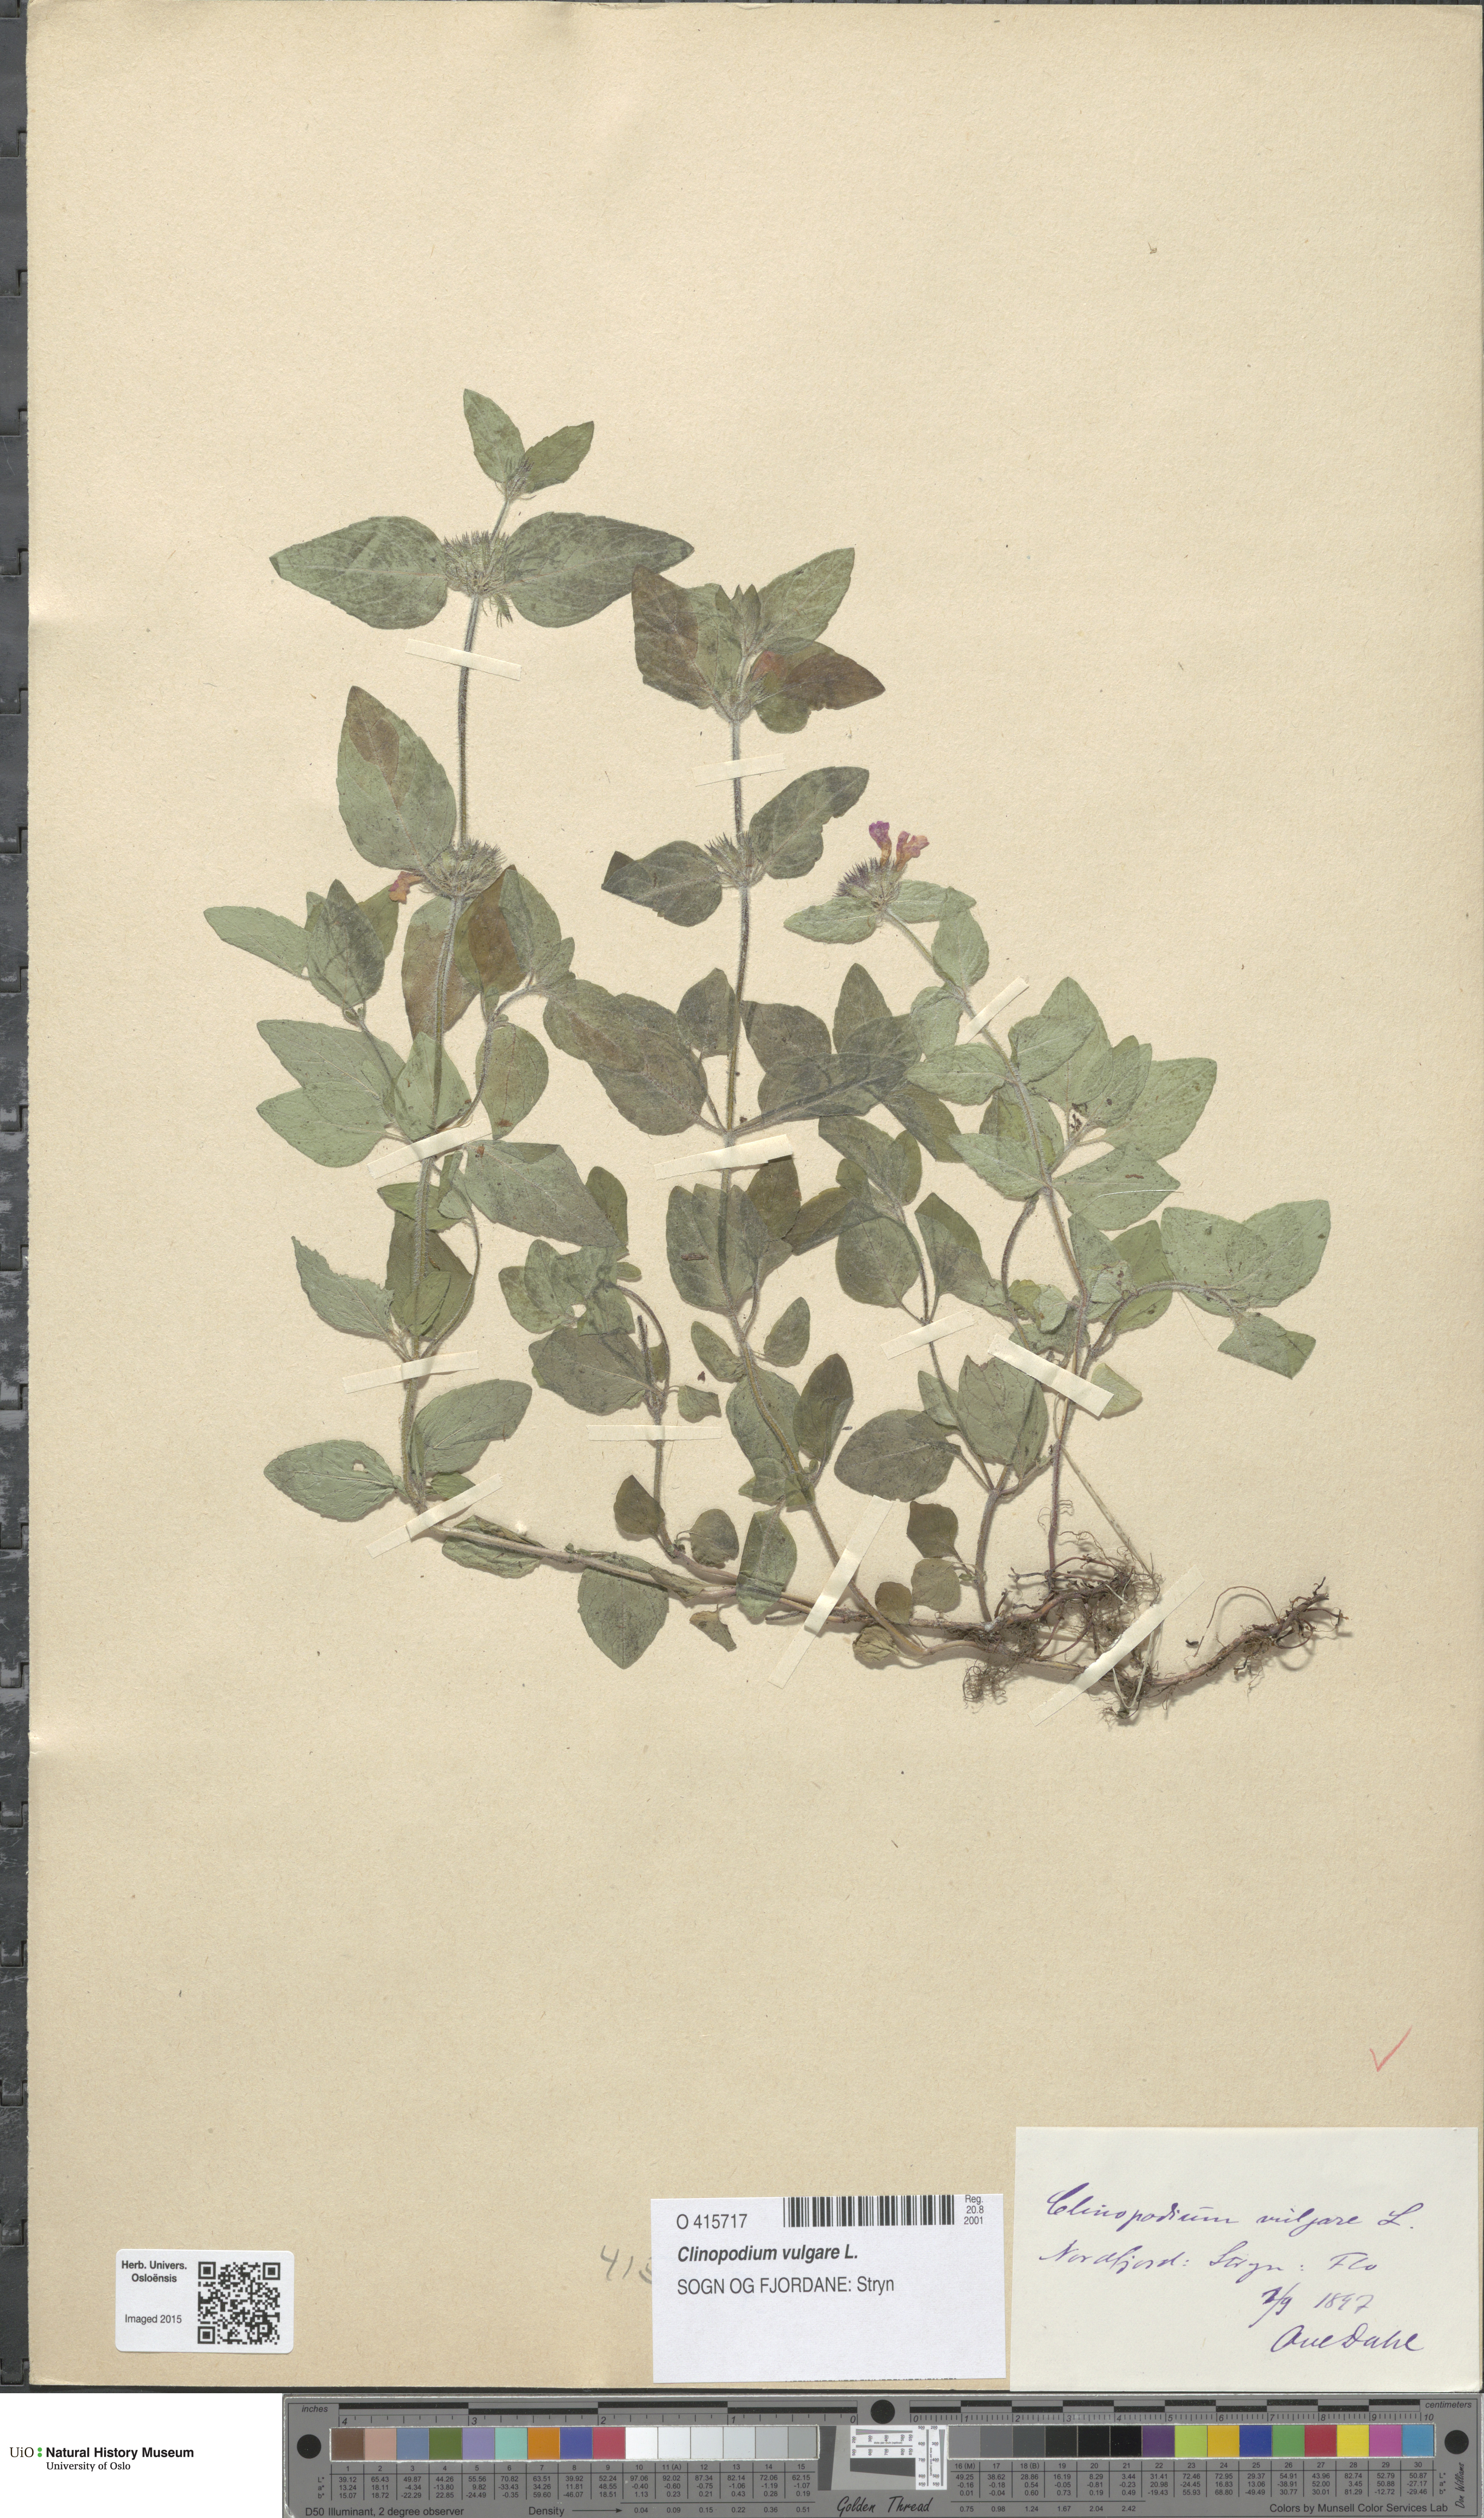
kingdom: Plantae
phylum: Tracheophyta
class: Magnoliopsida
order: Lamiales
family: Lamiaceae
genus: Clinopodium
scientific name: Clinopodium vulgare
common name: Wild basil
